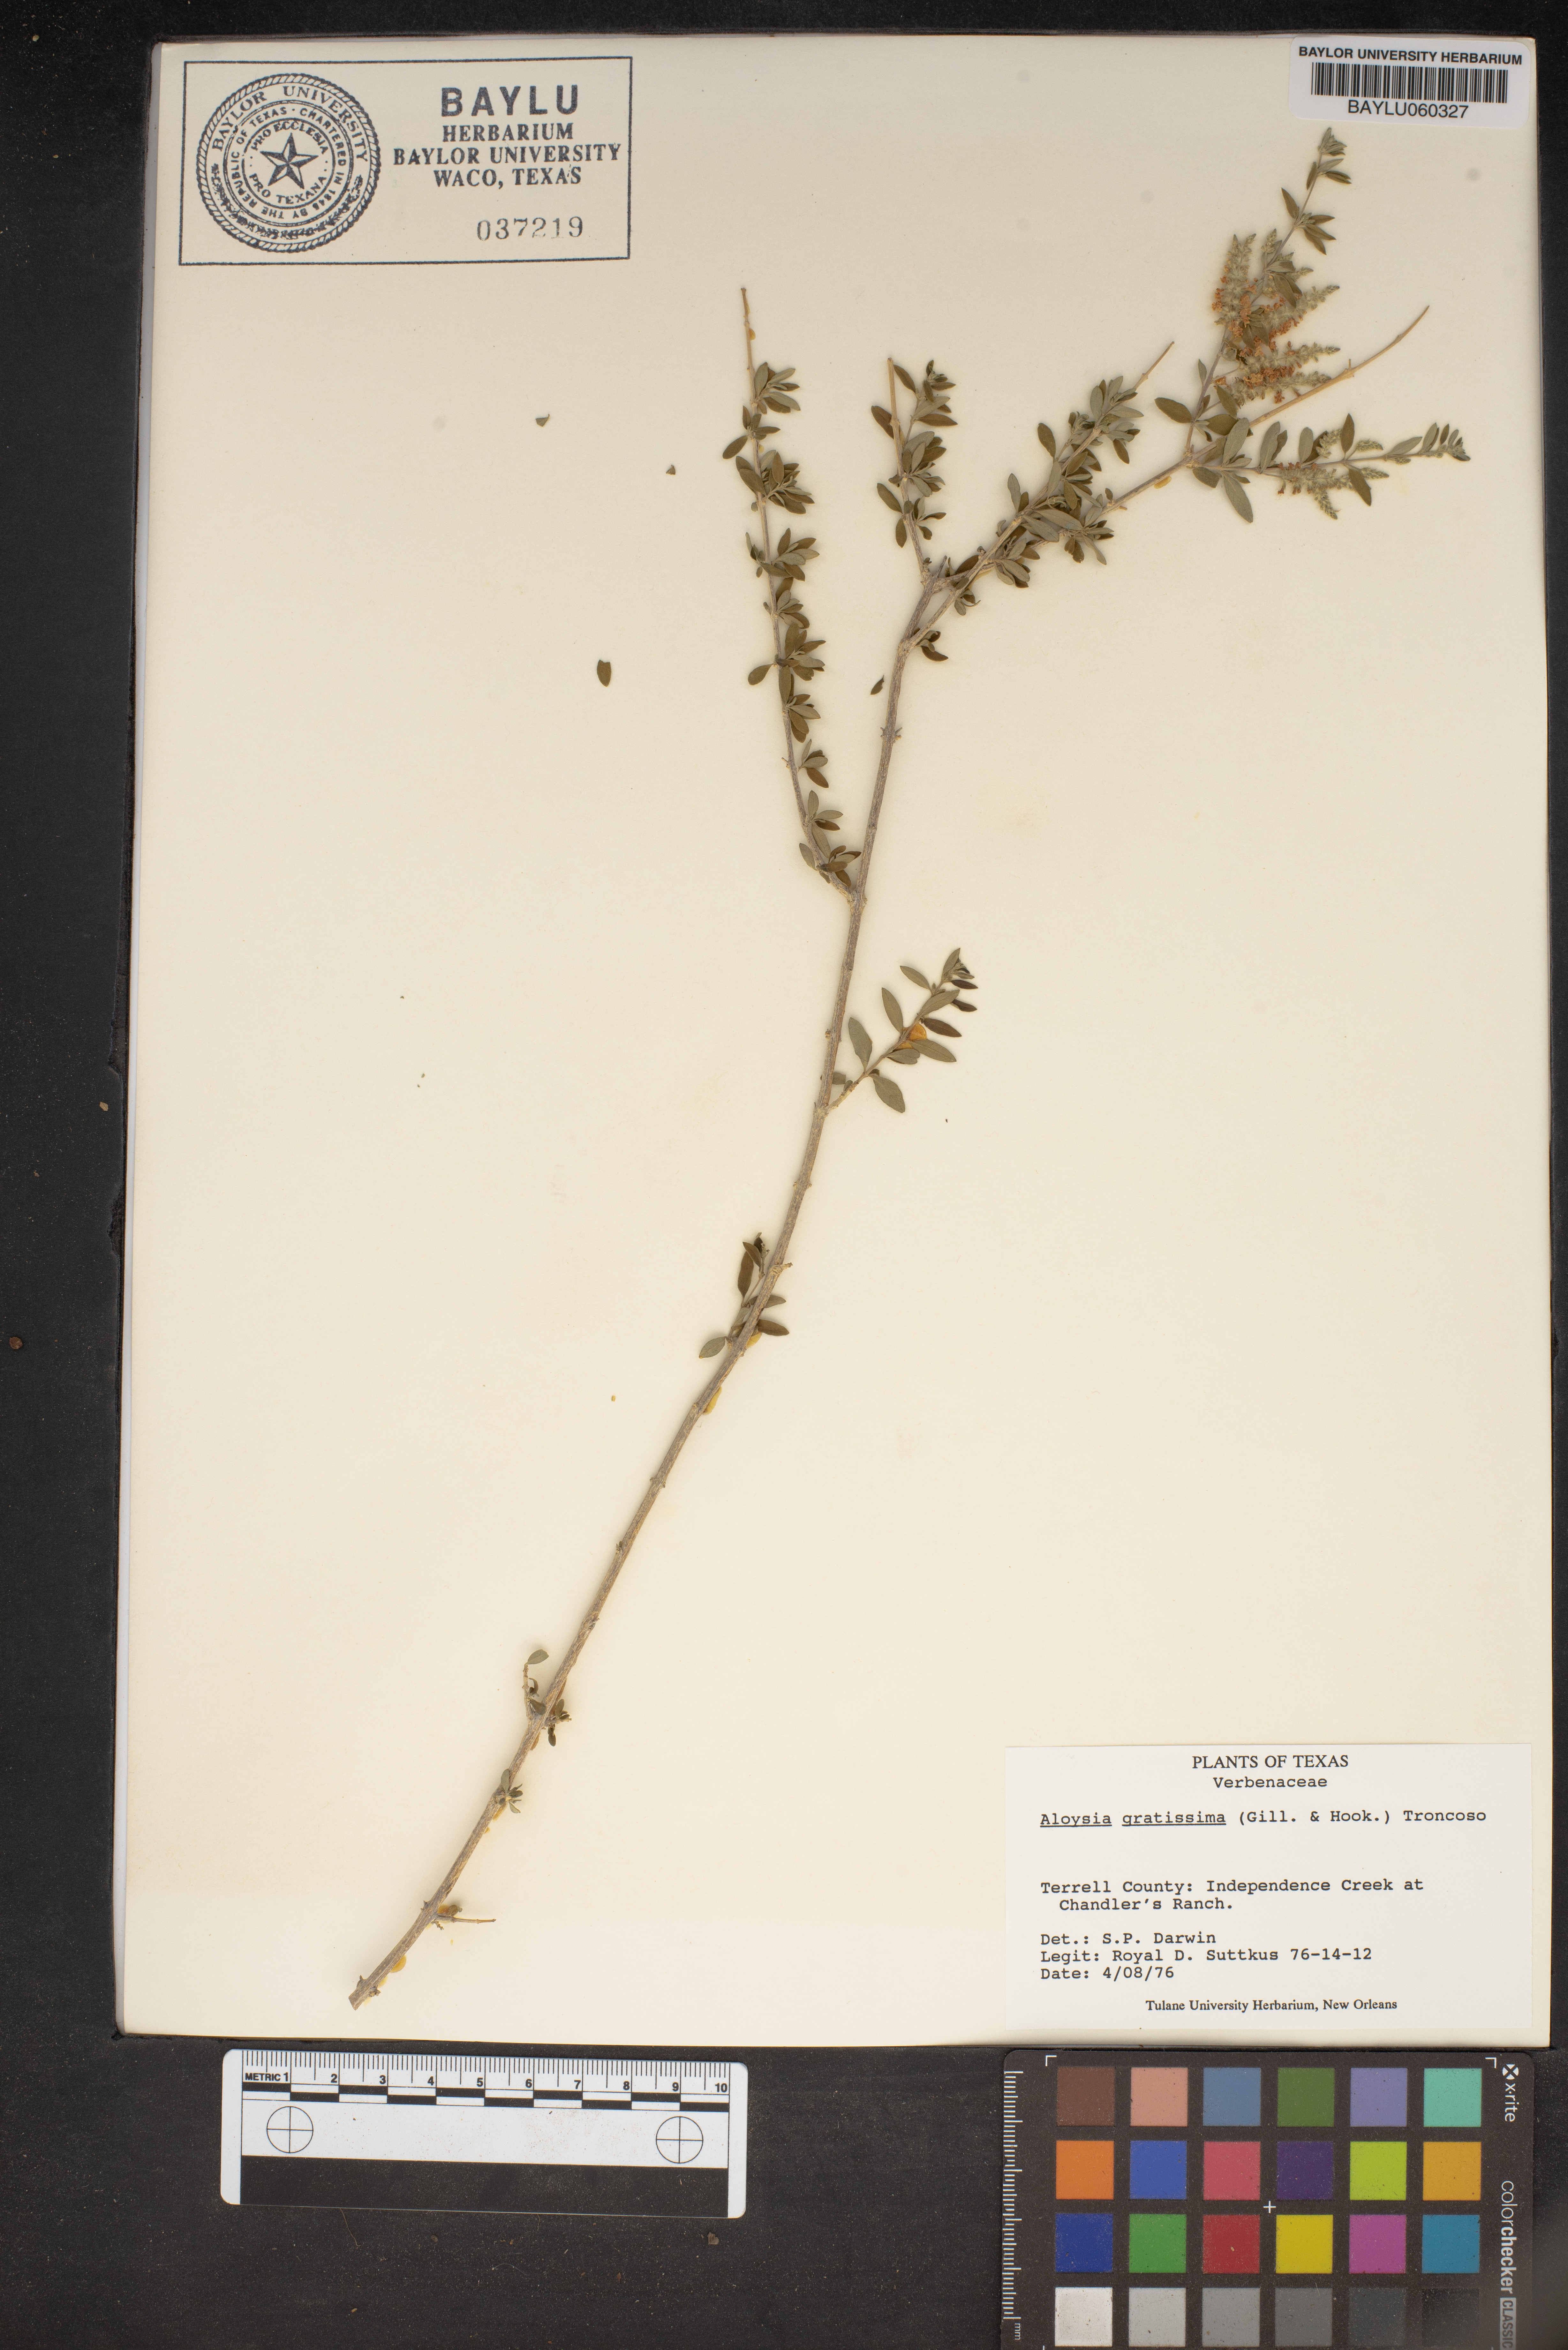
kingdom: Plantae
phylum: Tracheophyta
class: Magnoliopsida
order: Lamiales
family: Verbenaceae
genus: Aloysia
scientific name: Aloysia gratissima
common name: Common bee-brush
